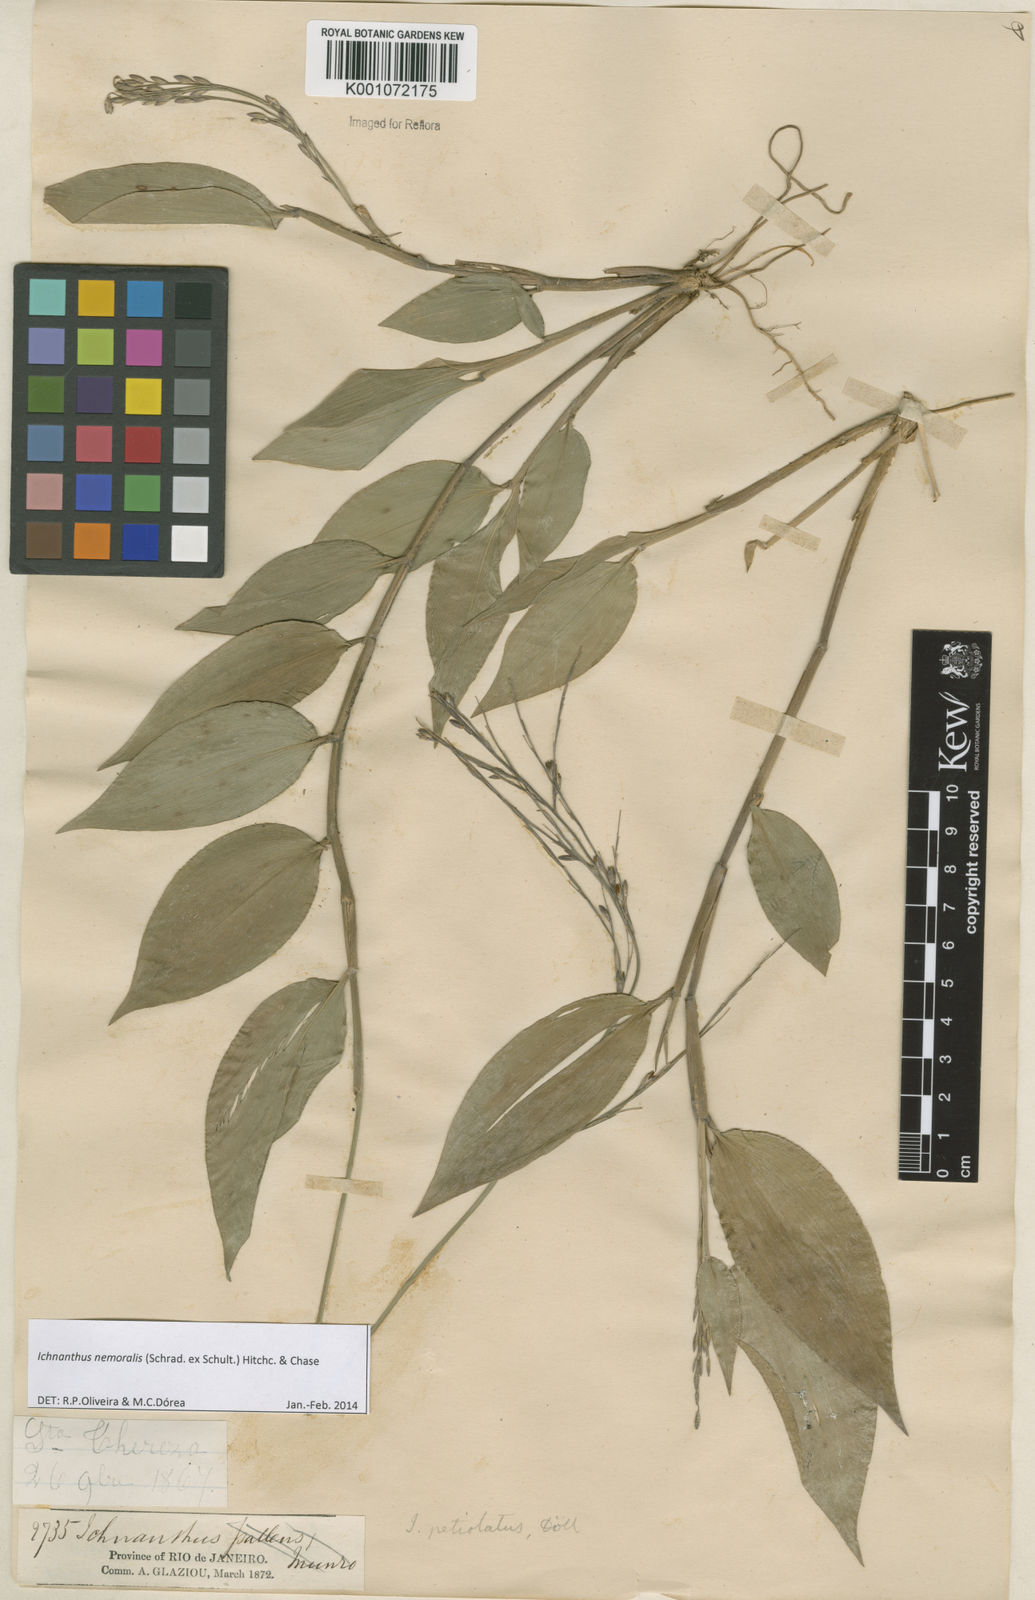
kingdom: Plantae
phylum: Tracheophyta
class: Liliopsida
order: Poales
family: Poaceae
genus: Ichnanthus
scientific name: Ichnanthus nemoralis
